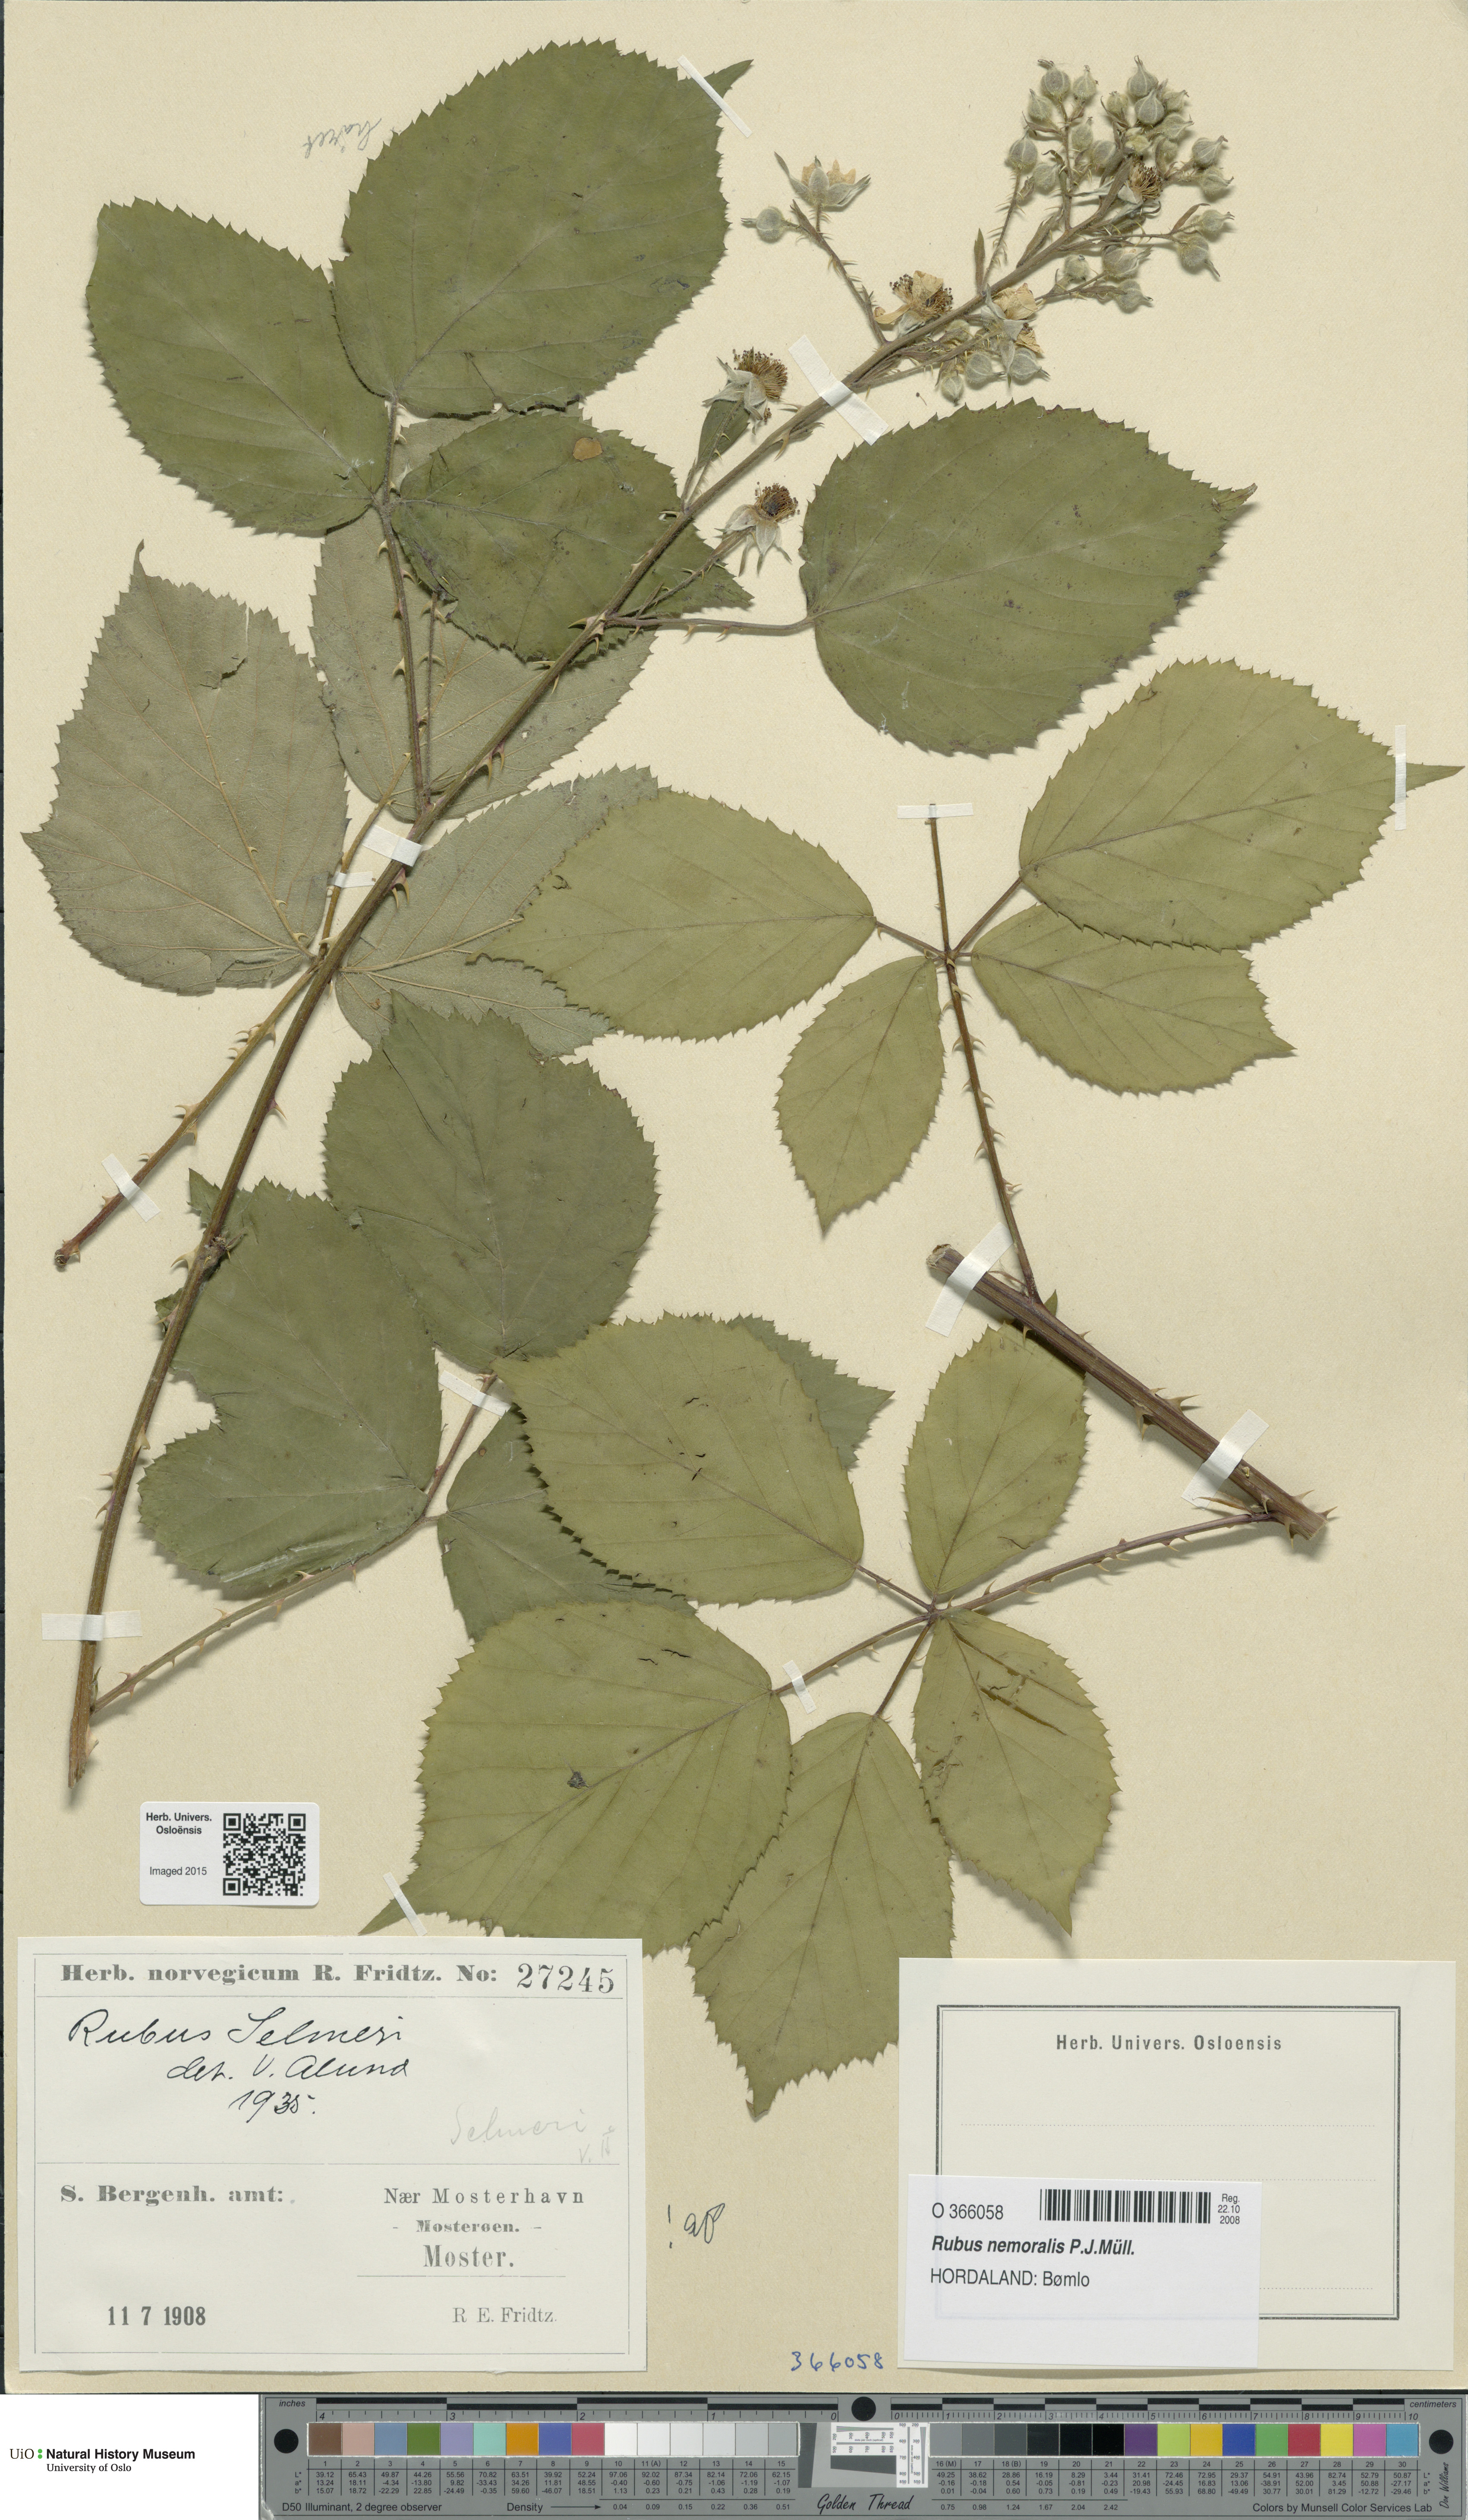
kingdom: Plantae
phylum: Tracheophyta
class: Magnoliopsida
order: Rosales
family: Rosaceae
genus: Rubus
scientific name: Rubus nemoralis
